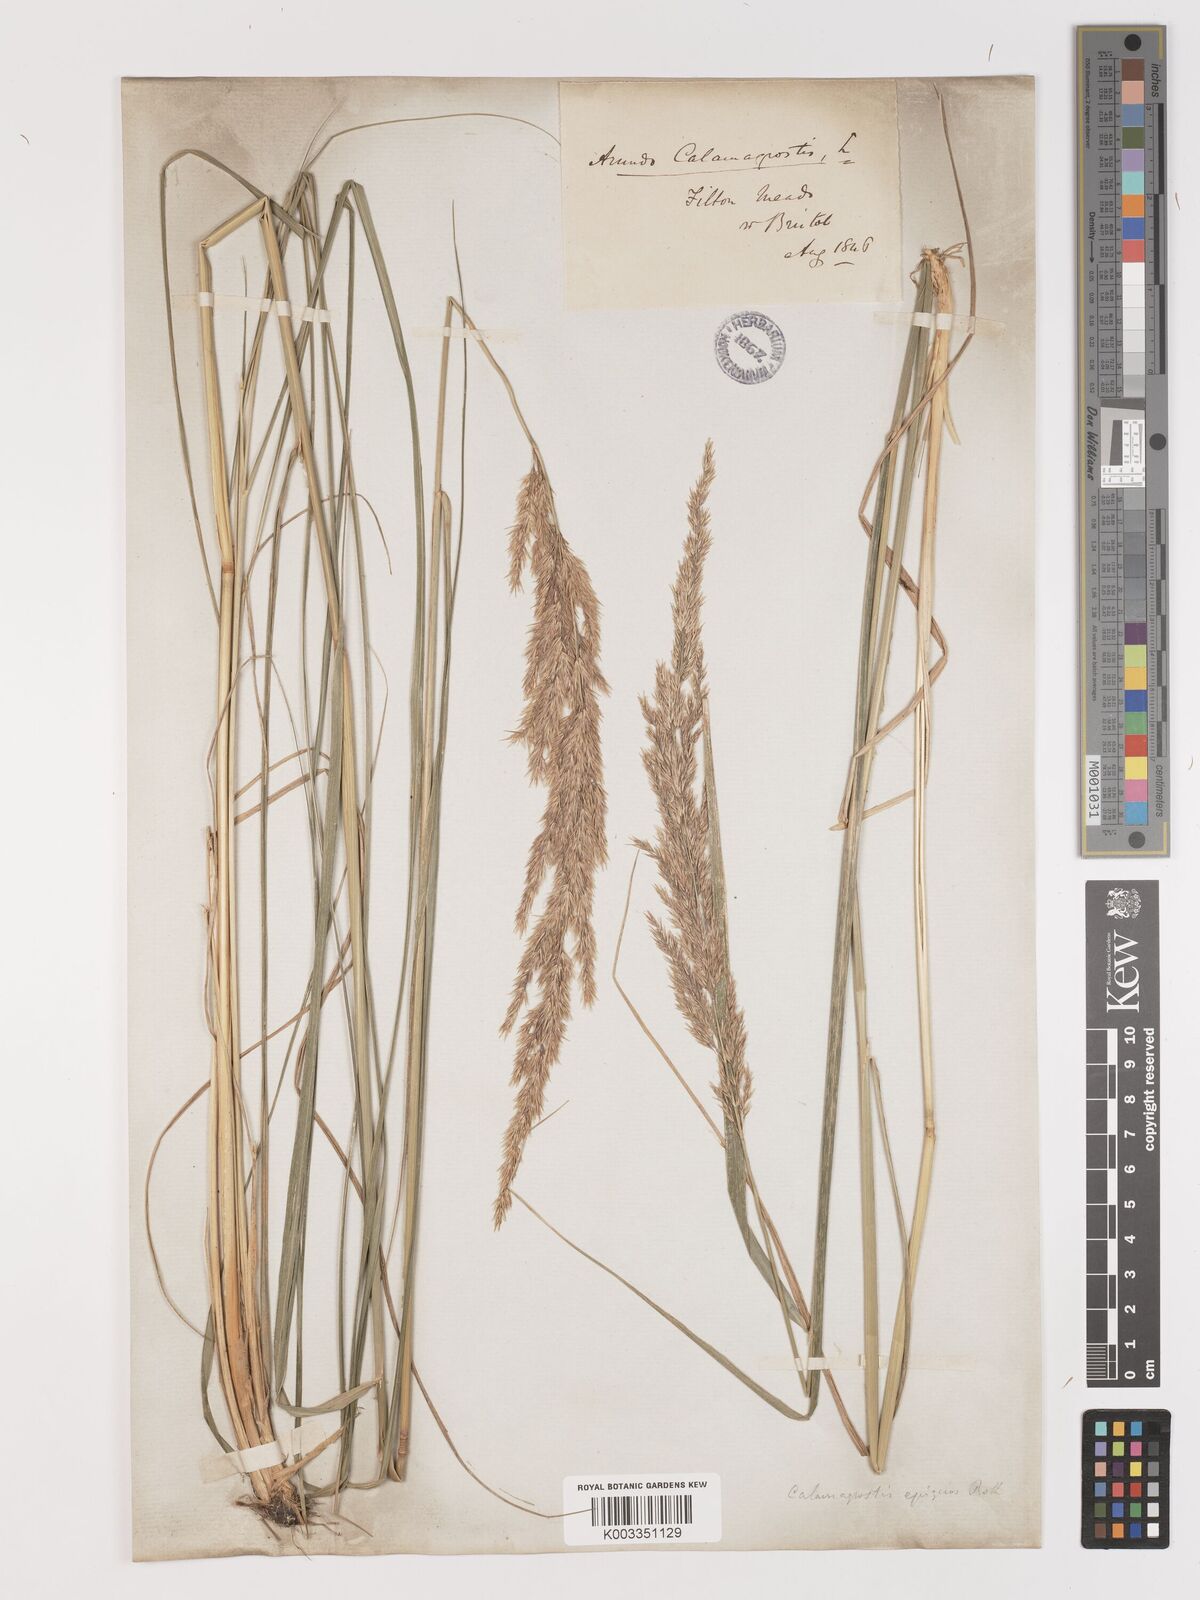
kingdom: Plantae
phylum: Tracheophyta
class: Liliopsida
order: Poales
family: Poaceae
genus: Calamagrostis
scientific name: Calamagrostis
